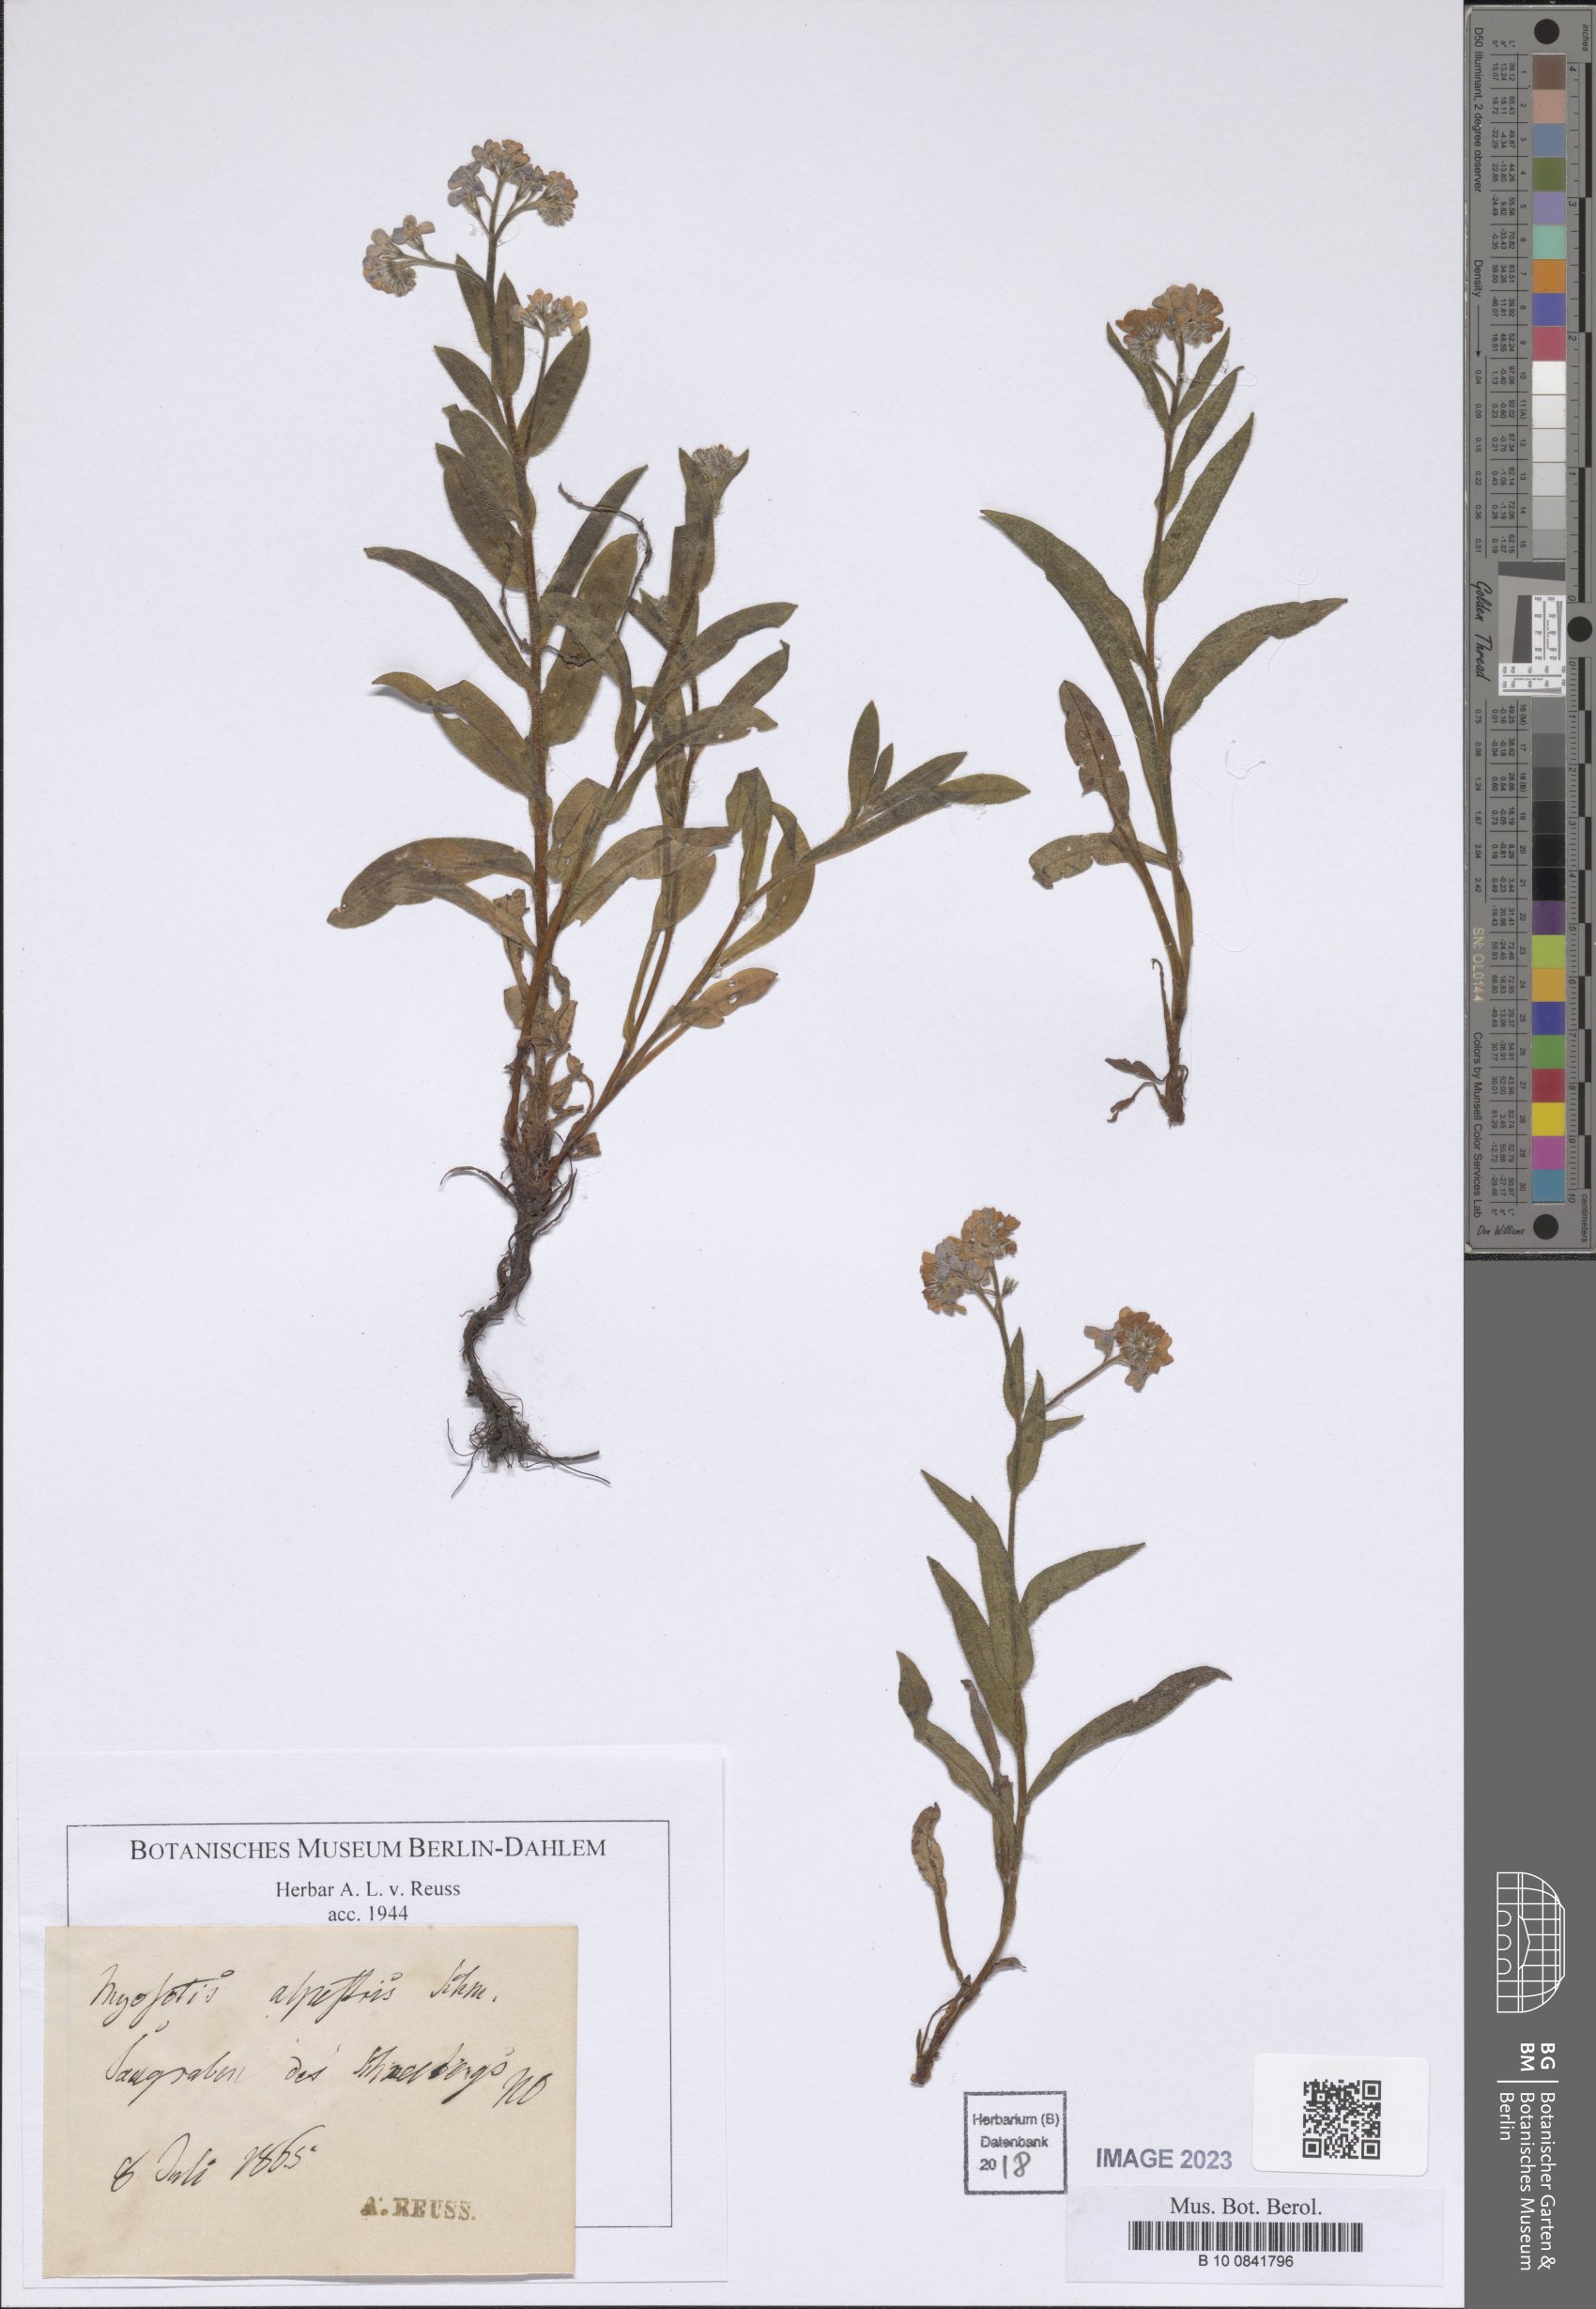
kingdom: Plantae
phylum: Tracheophyta
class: Magnoliopsida
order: Boraginales
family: Boraginaceae
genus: Myosotis
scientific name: Myosotis alpestris
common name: Alpine forget-me-not
